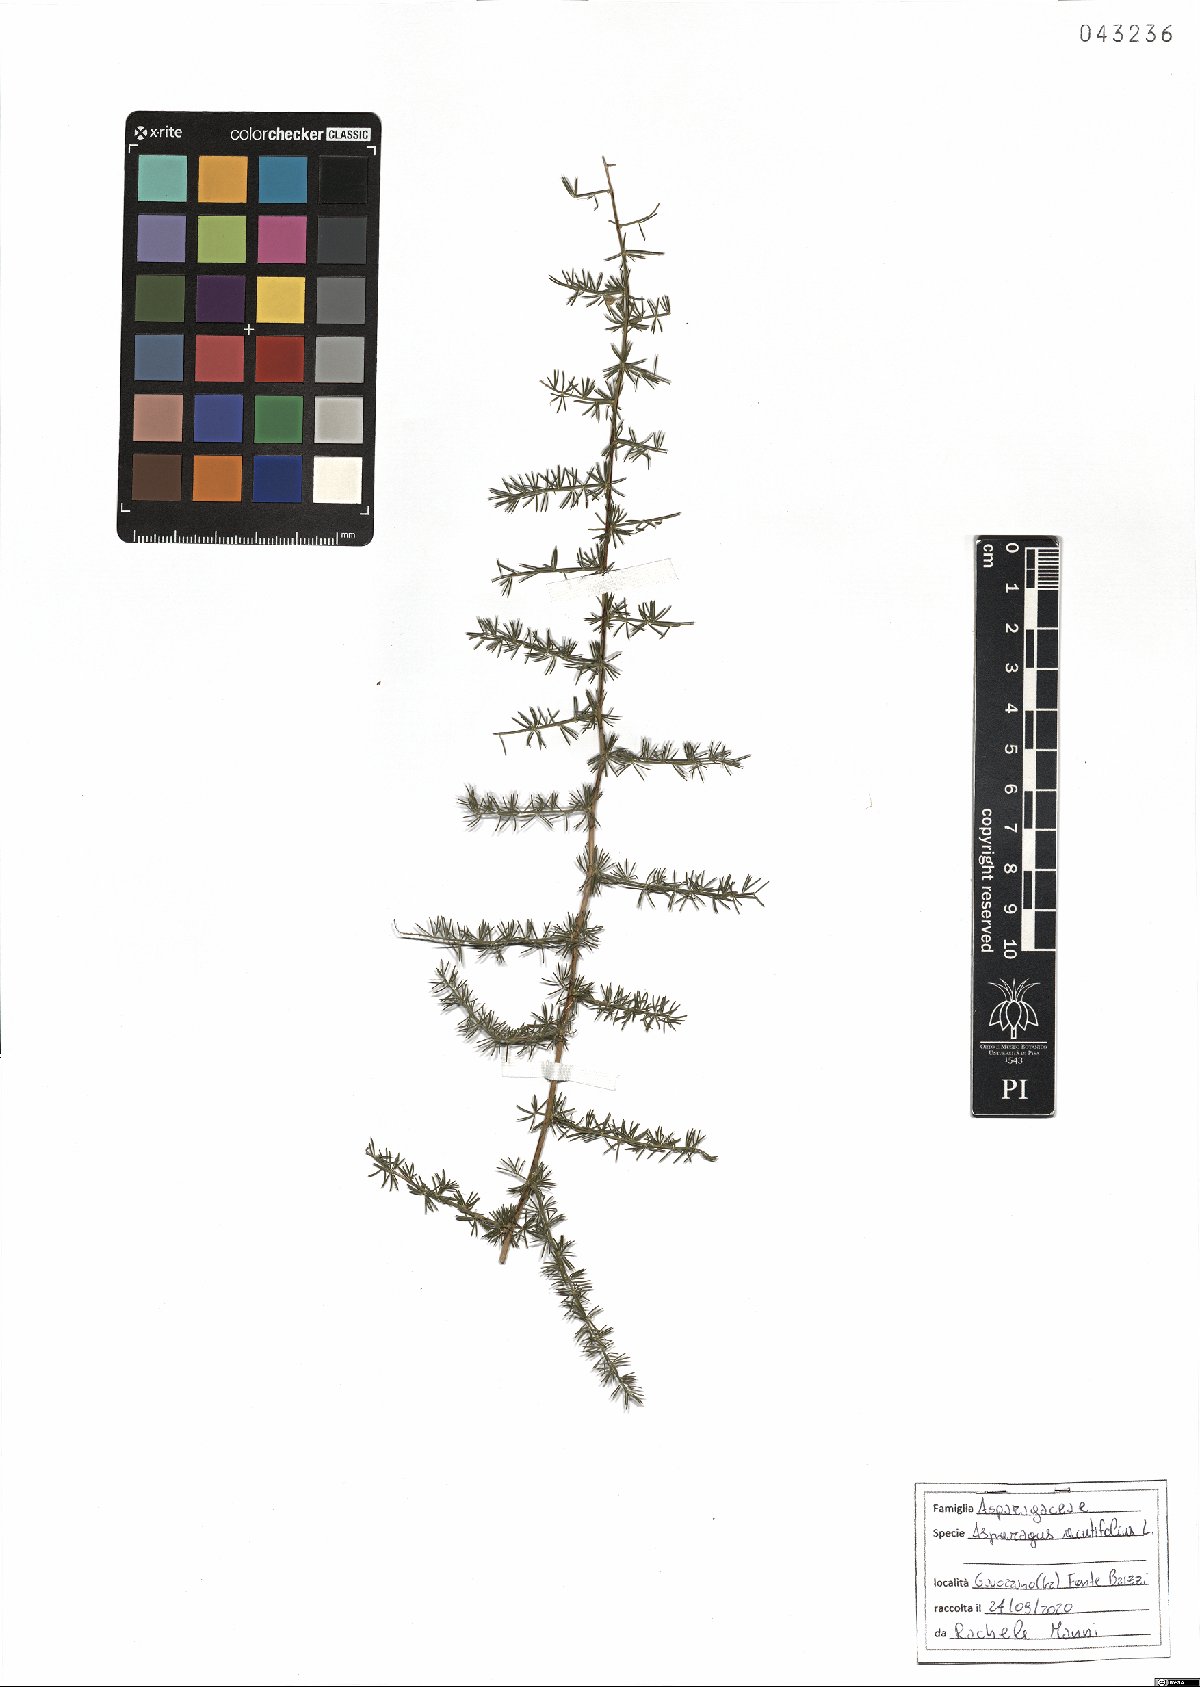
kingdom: Plantae
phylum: Tracheophyta
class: Liliopsida
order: Asparagales
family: Asparagaceae
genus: Asparagus
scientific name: Asparagus acutifolius
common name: Wild asparagus
